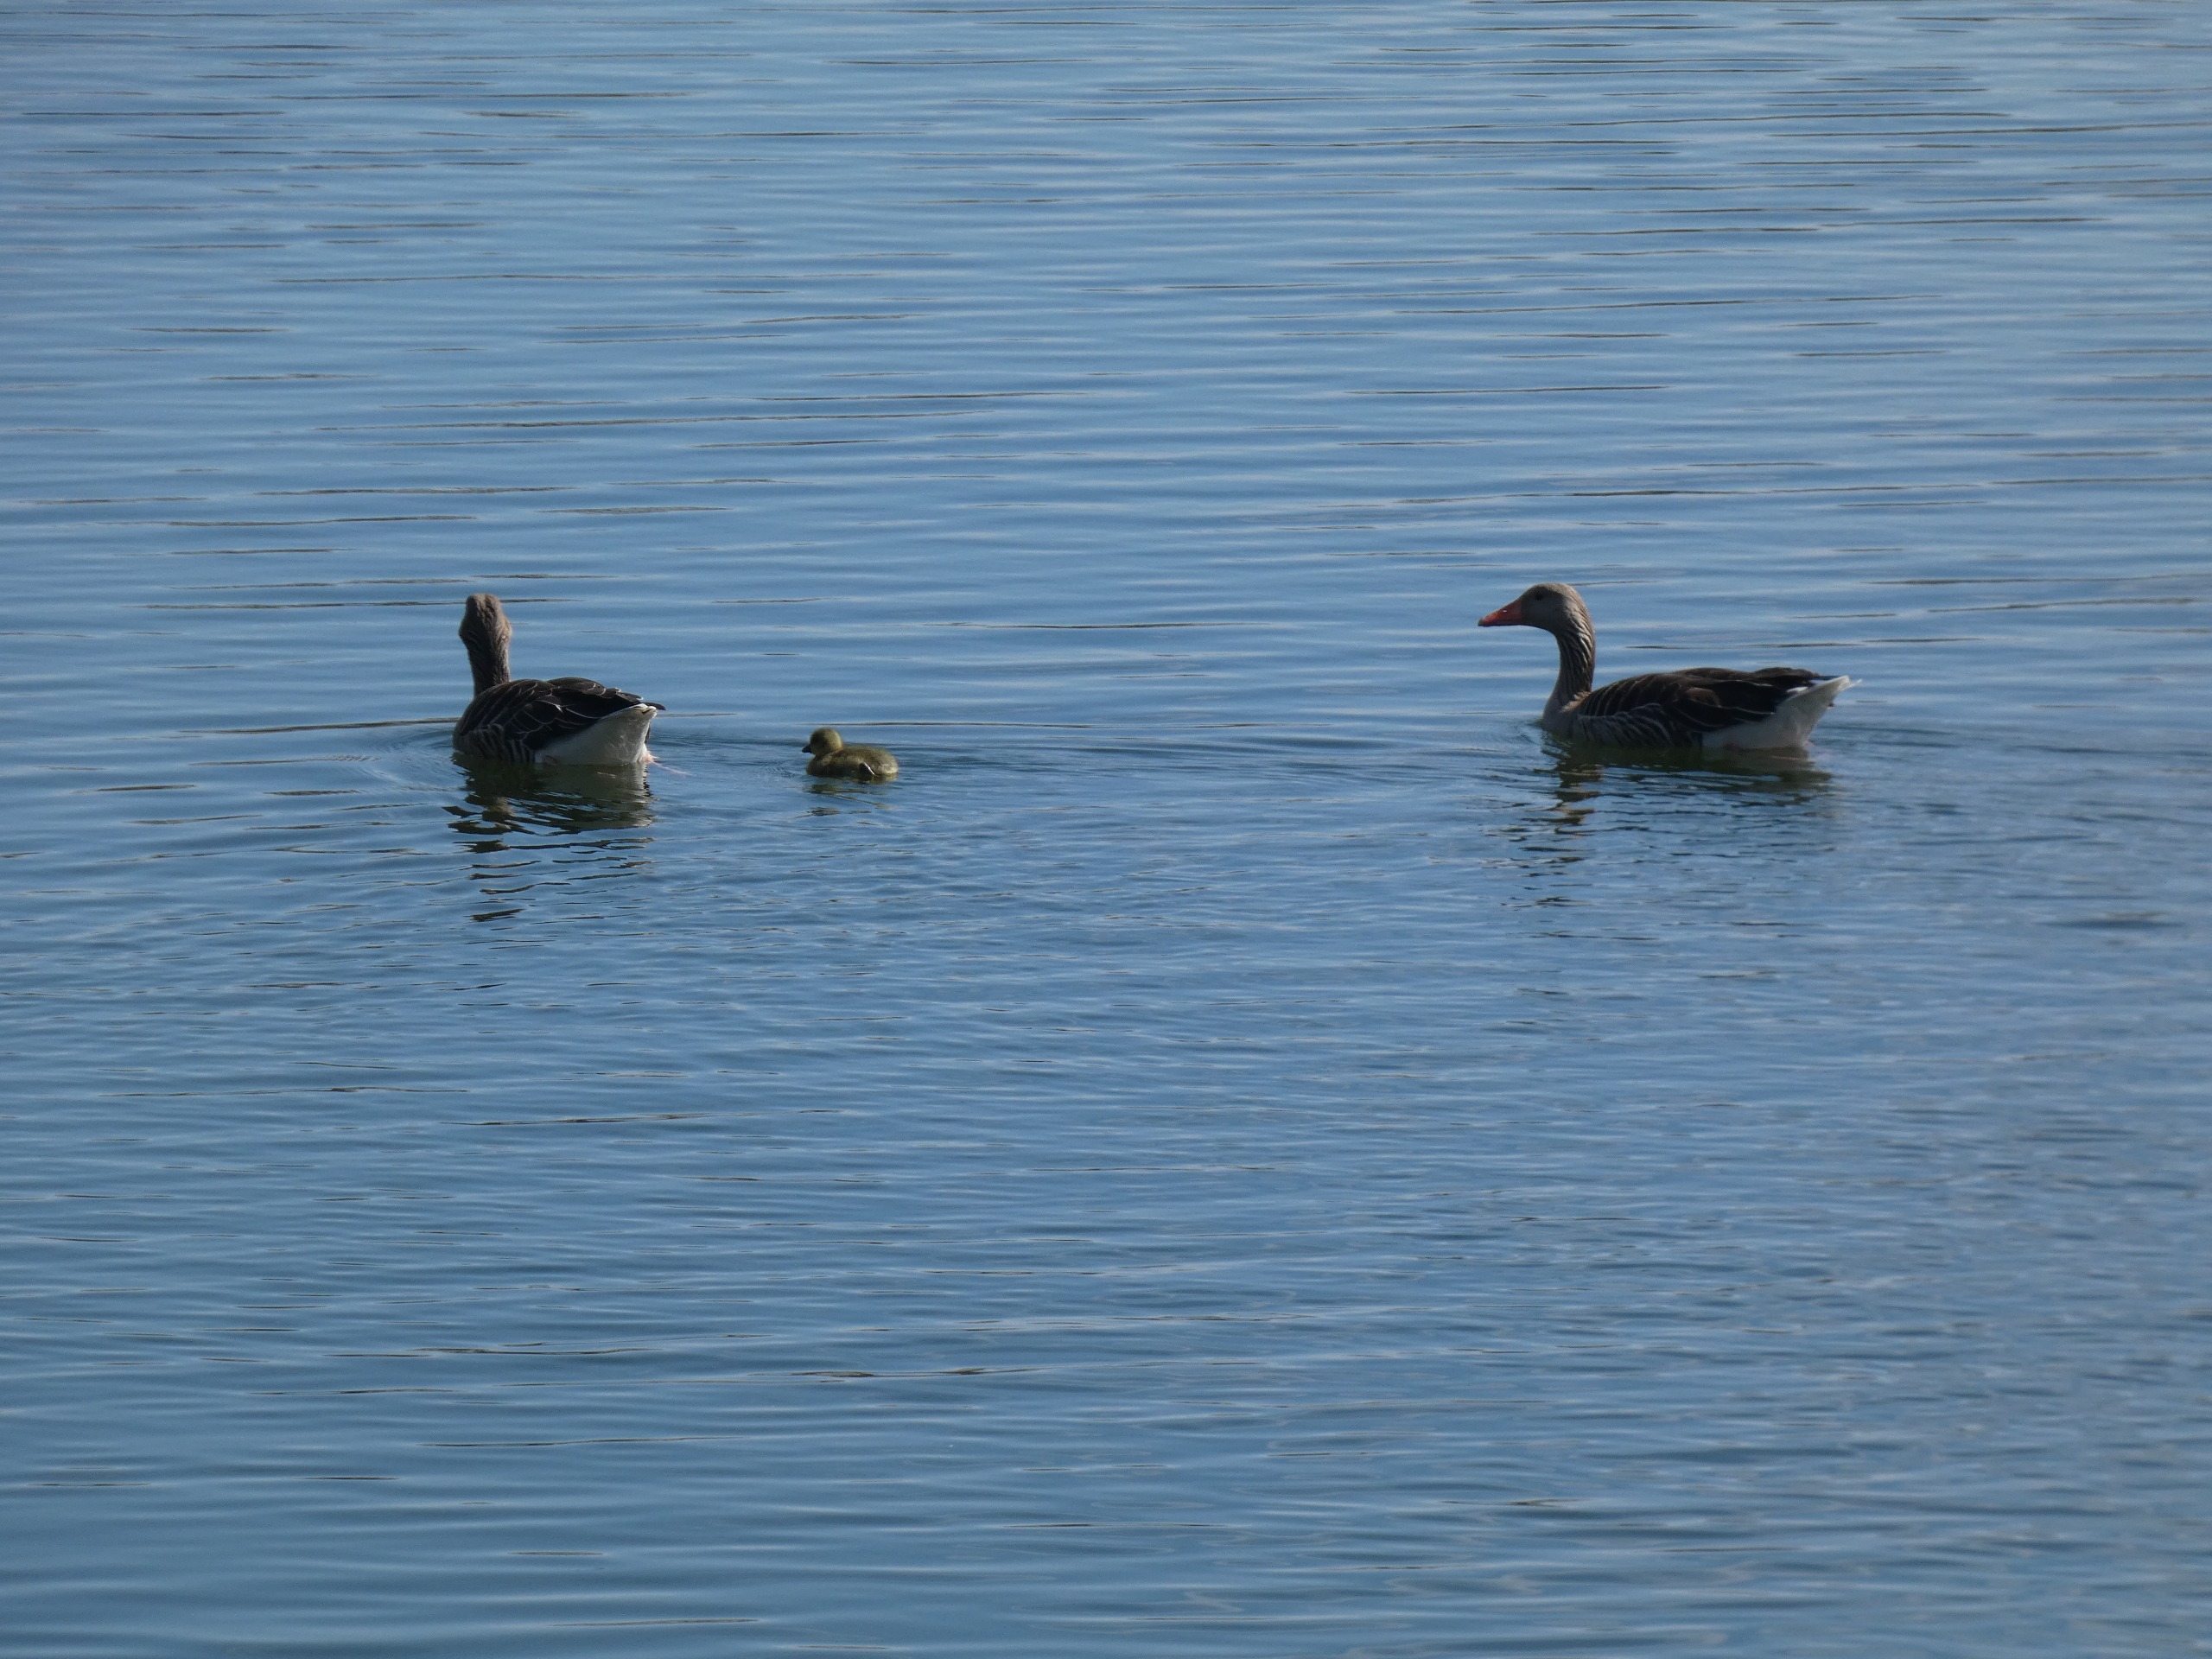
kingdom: Animalia
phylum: Chordata
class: Aves
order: Anseriformes
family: Anatidae
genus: Anser
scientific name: Anser anser
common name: Grågås
